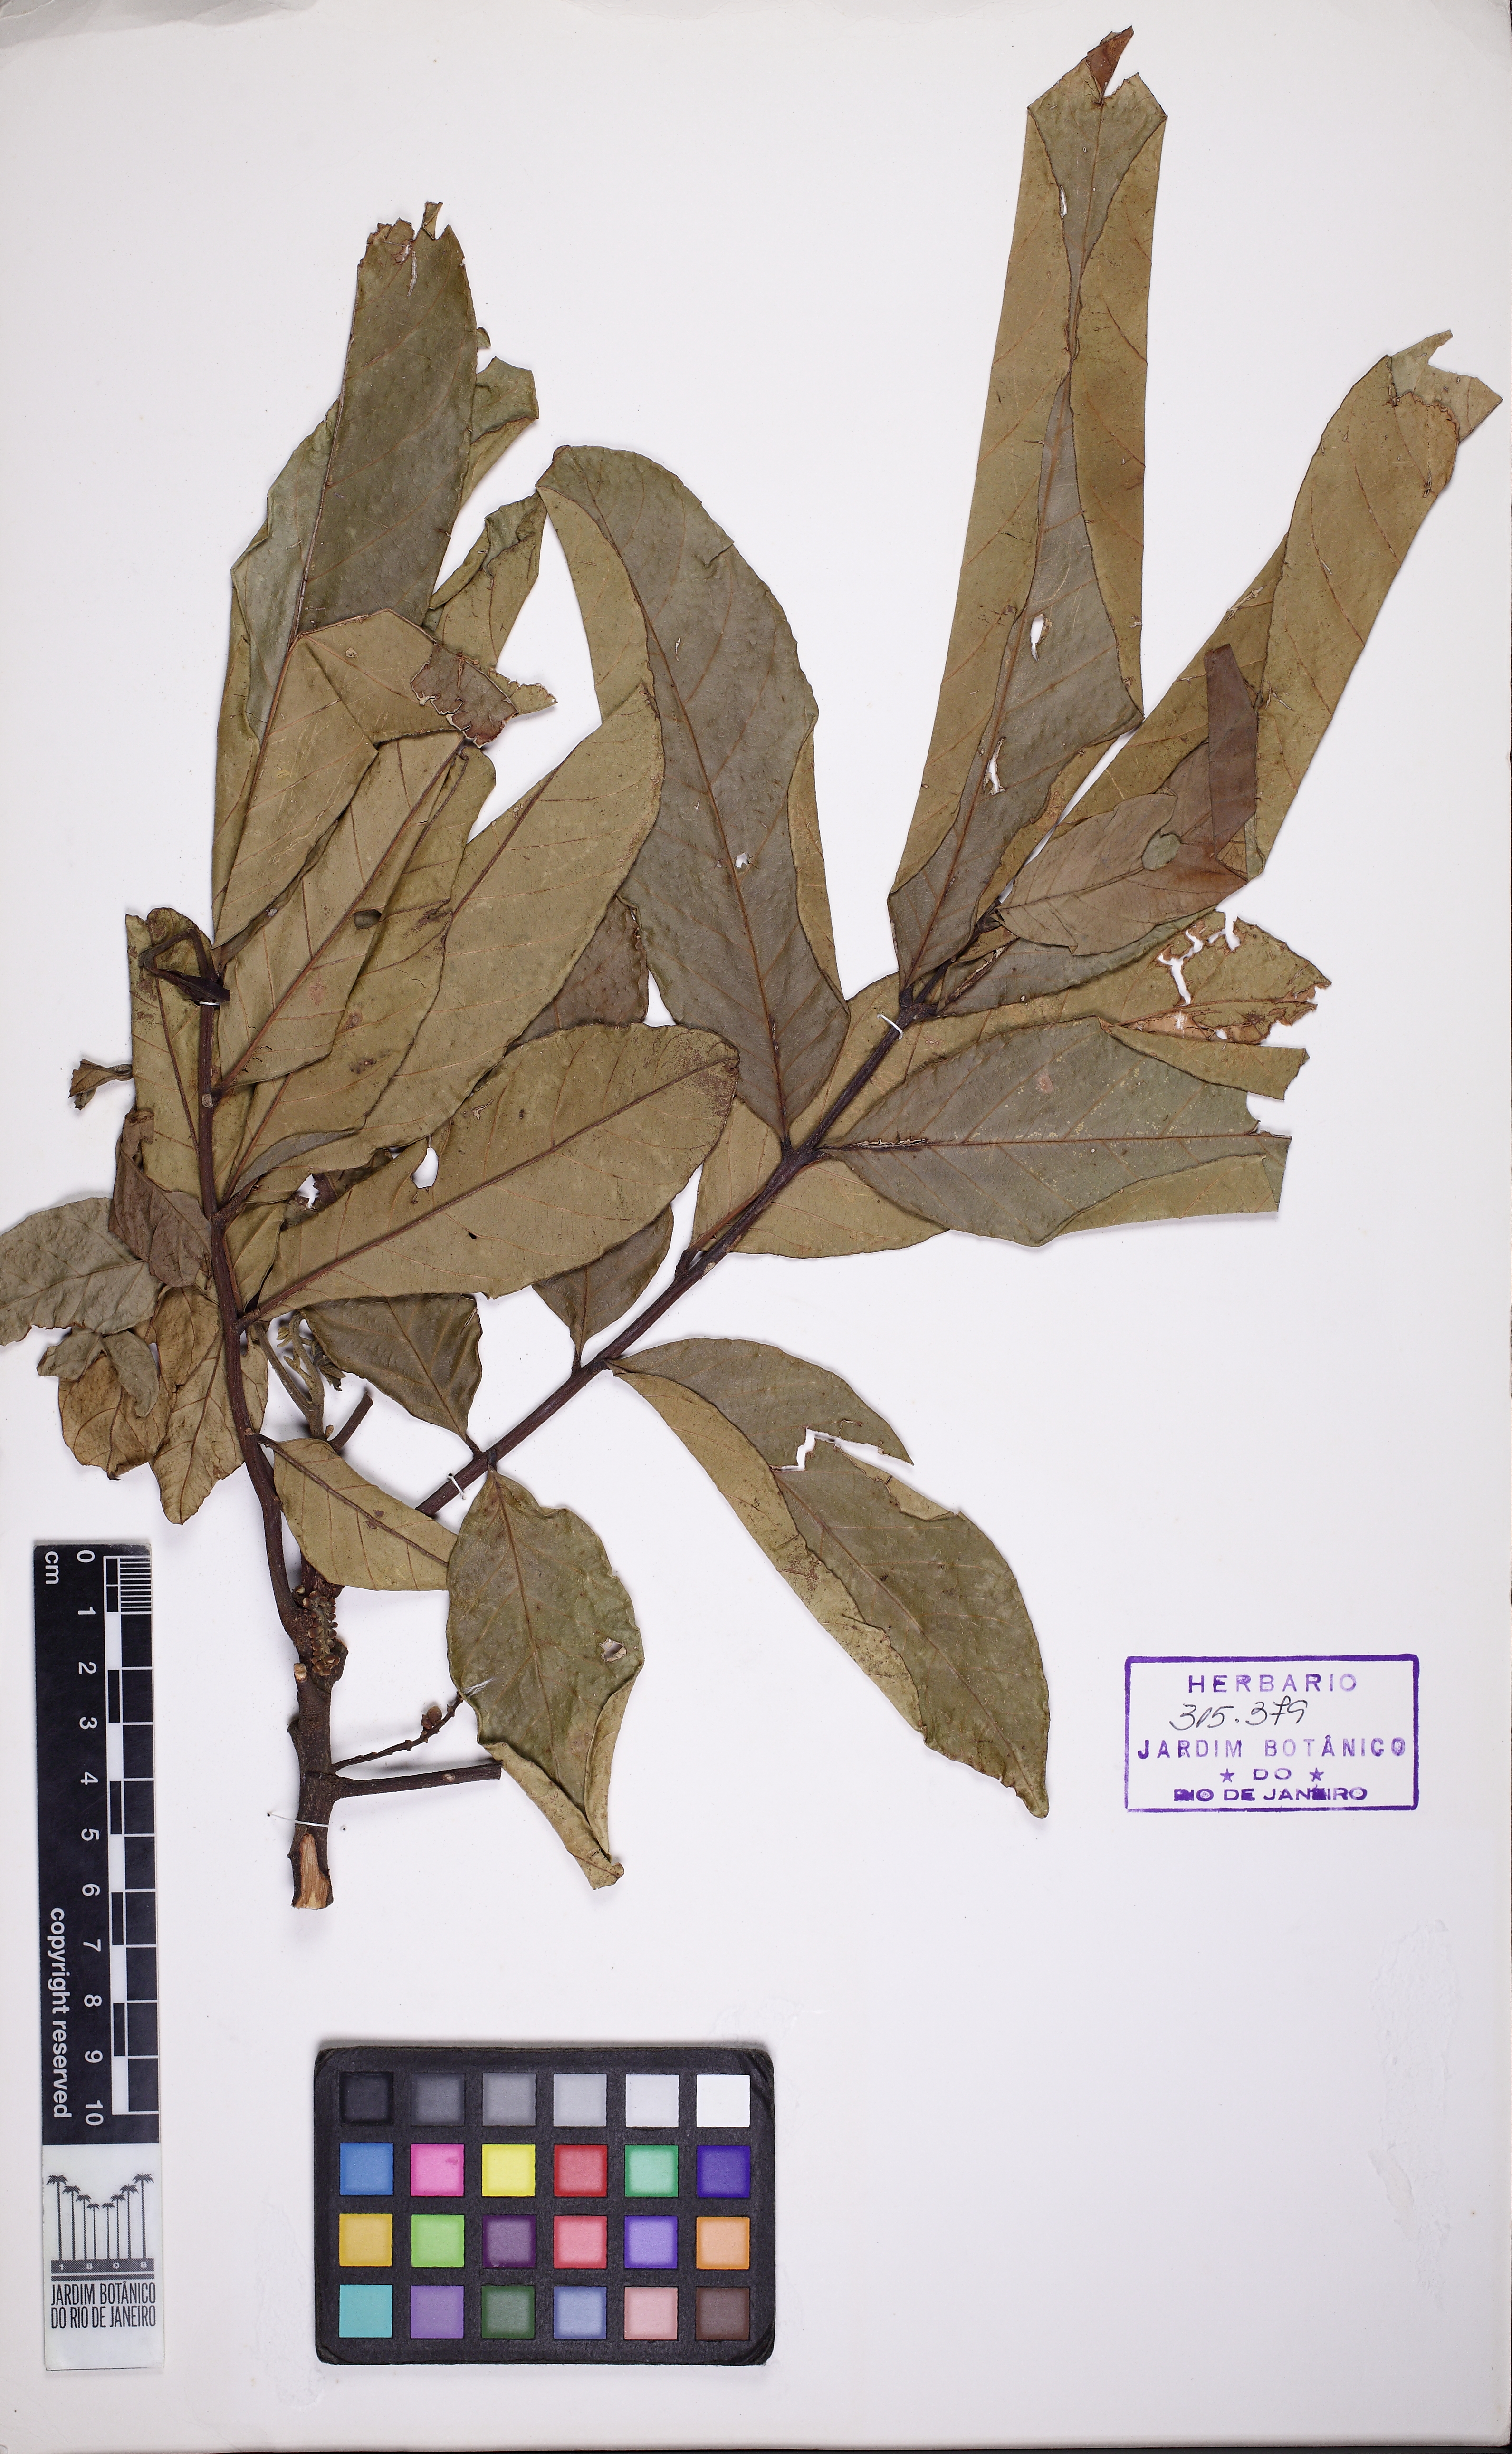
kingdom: Plantae
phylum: Tracheophyta
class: Magnoliopsida
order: Sapindales
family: Meliaceae
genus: Guarea
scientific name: Guarea guidonia
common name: American muskwood
